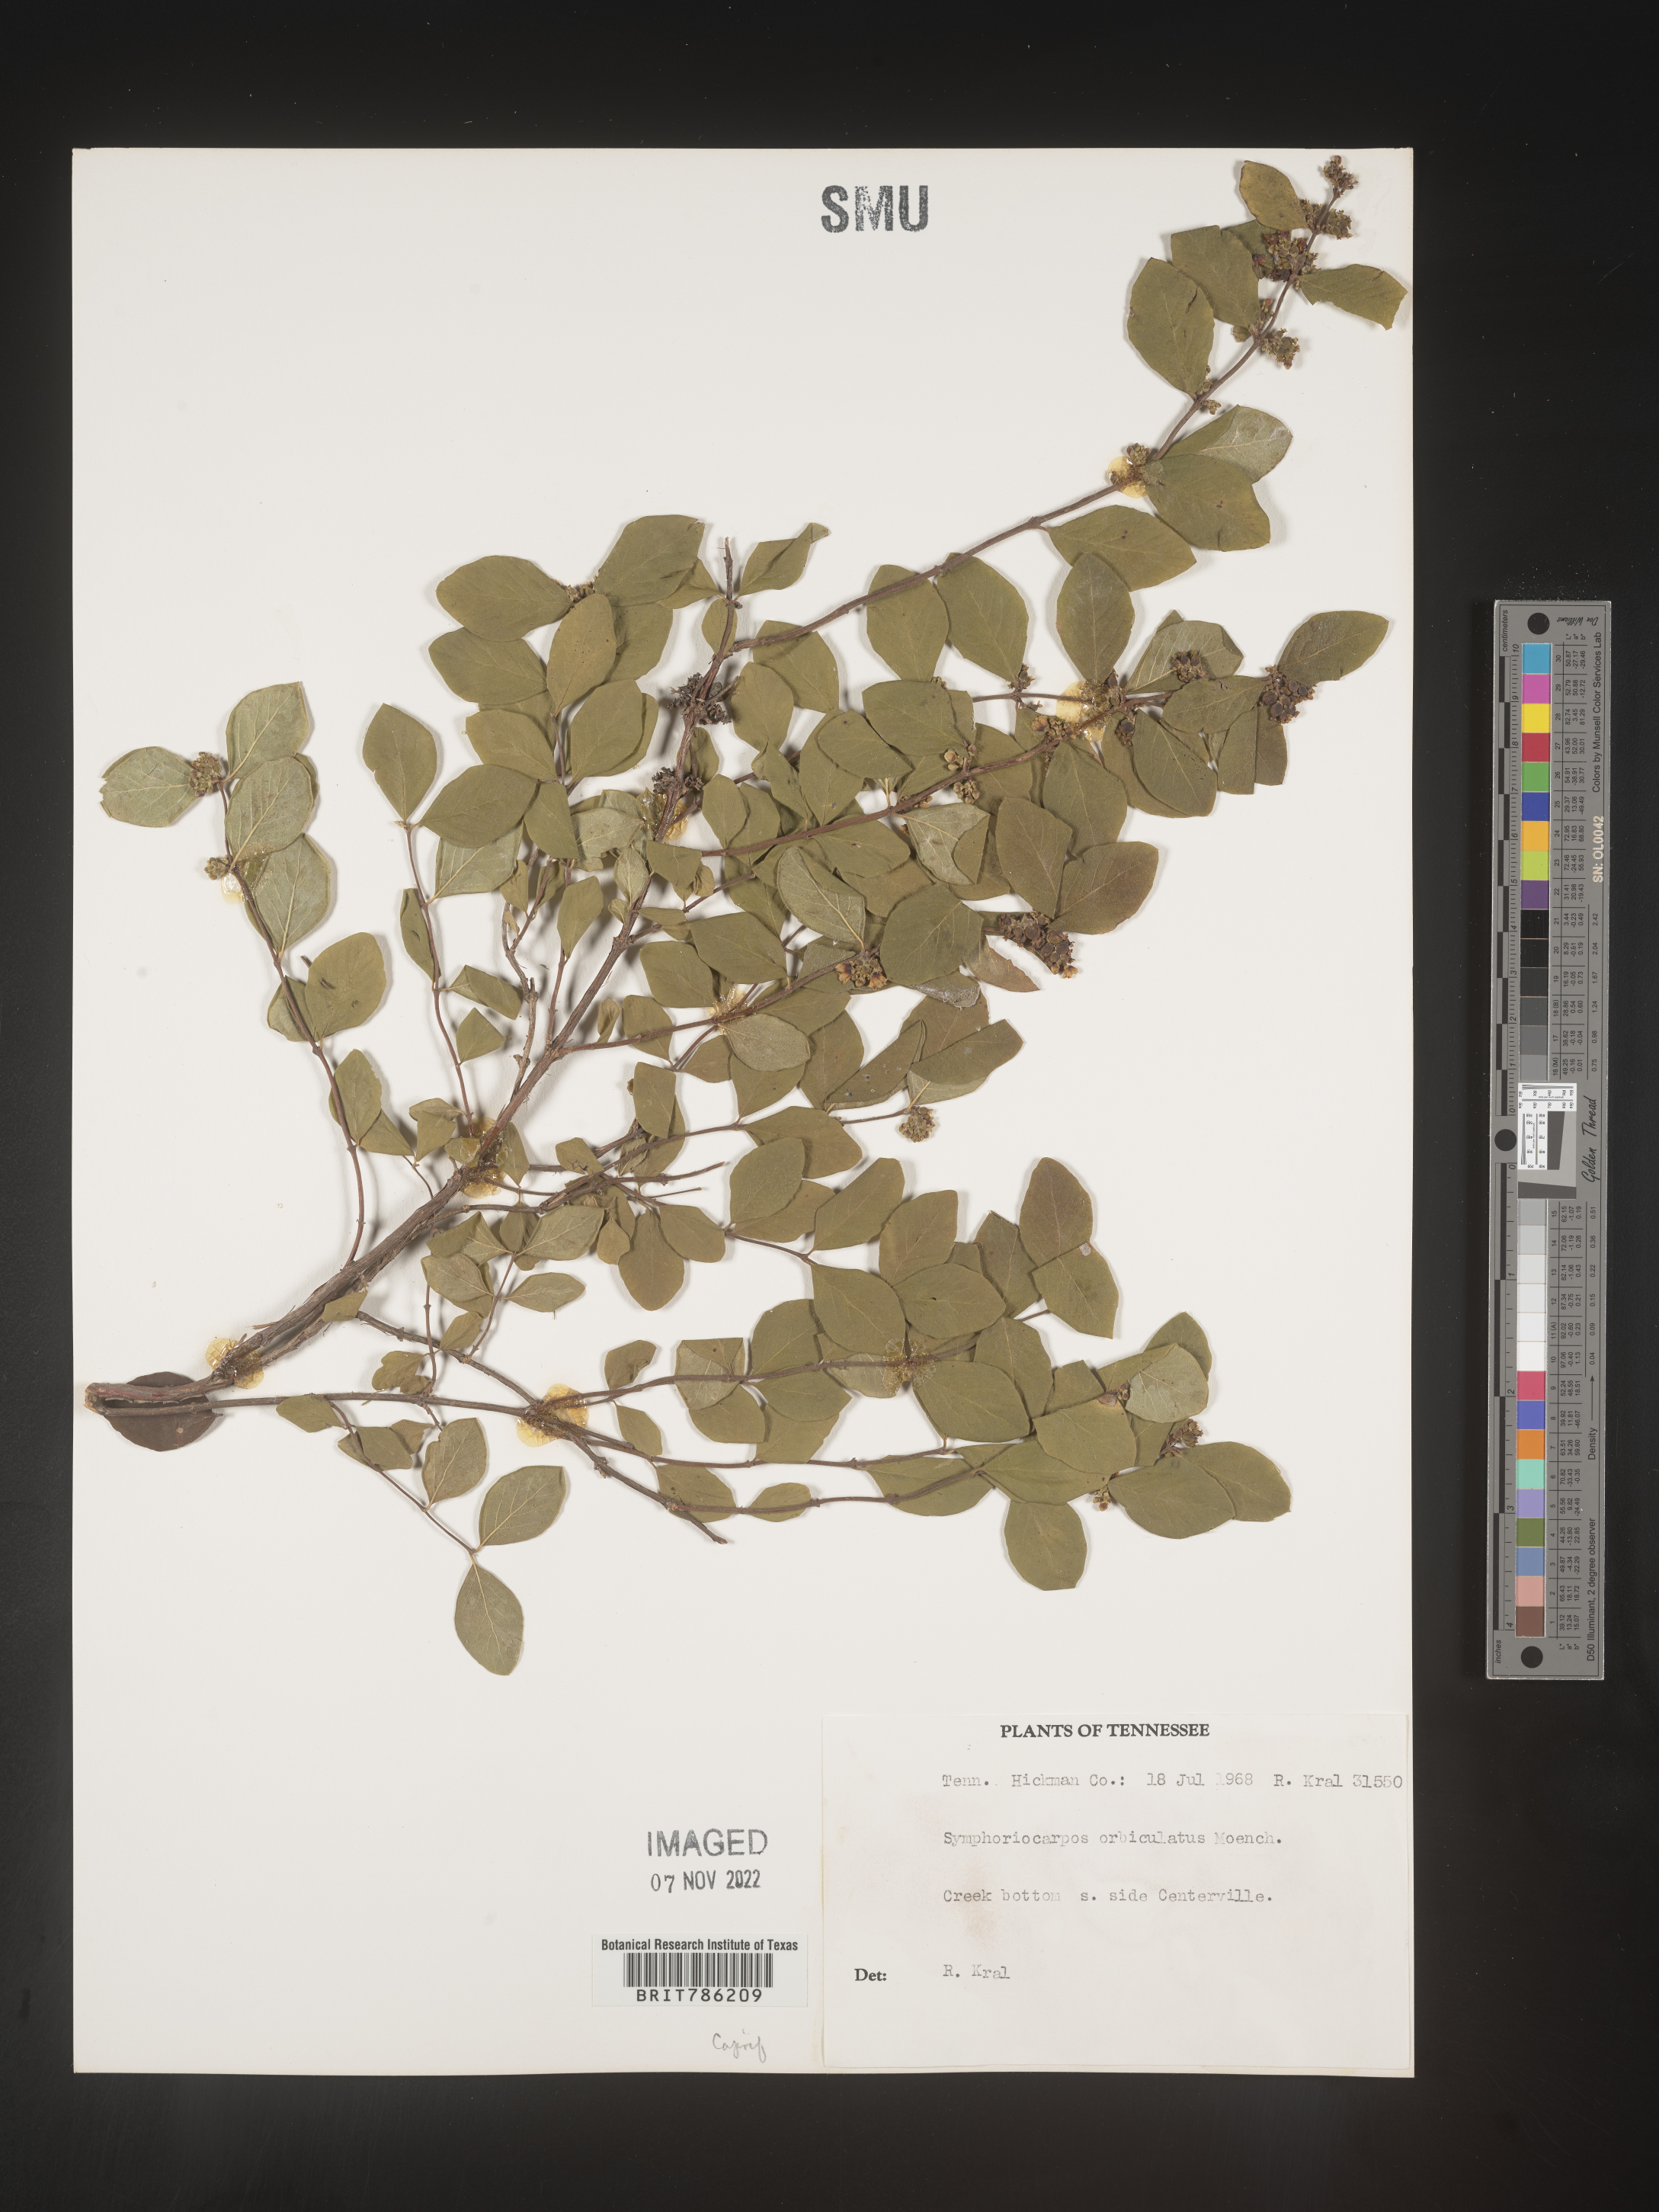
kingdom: Plantae
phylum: Tracheophyta
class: Magnoliopsida
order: Dipsacales
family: Caprifoliaceae
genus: Symphoricarpos
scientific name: Symphoricarpos orbiculatus
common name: Coralberry
